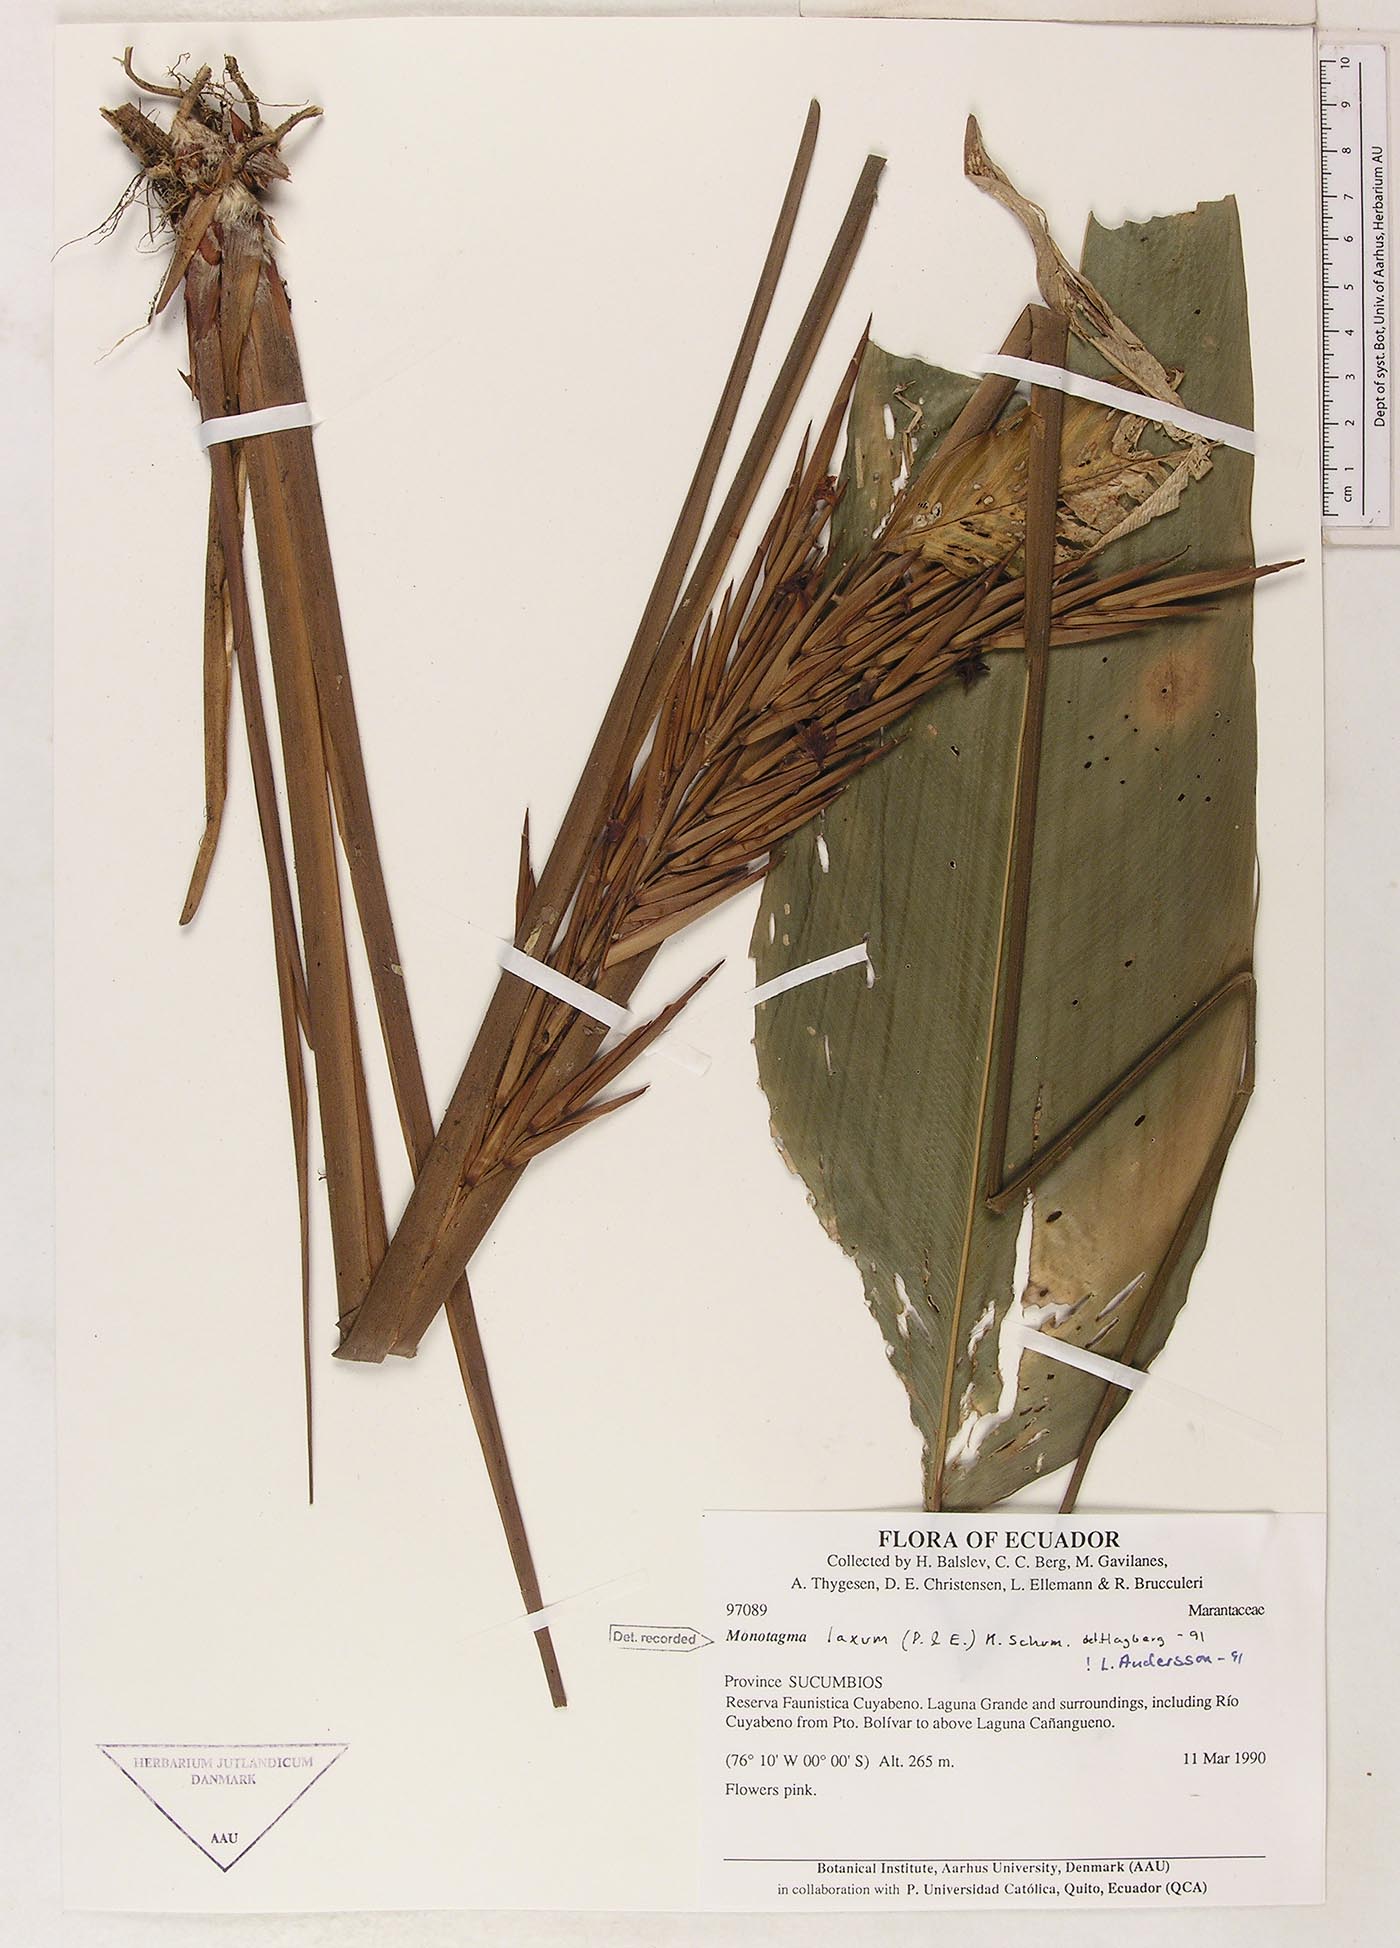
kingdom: Plantae
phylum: Tracheophyta
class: Liliopsida
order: Zingiberales
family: Marantaceae
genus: Monotagma
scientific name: Monotagma laxum
